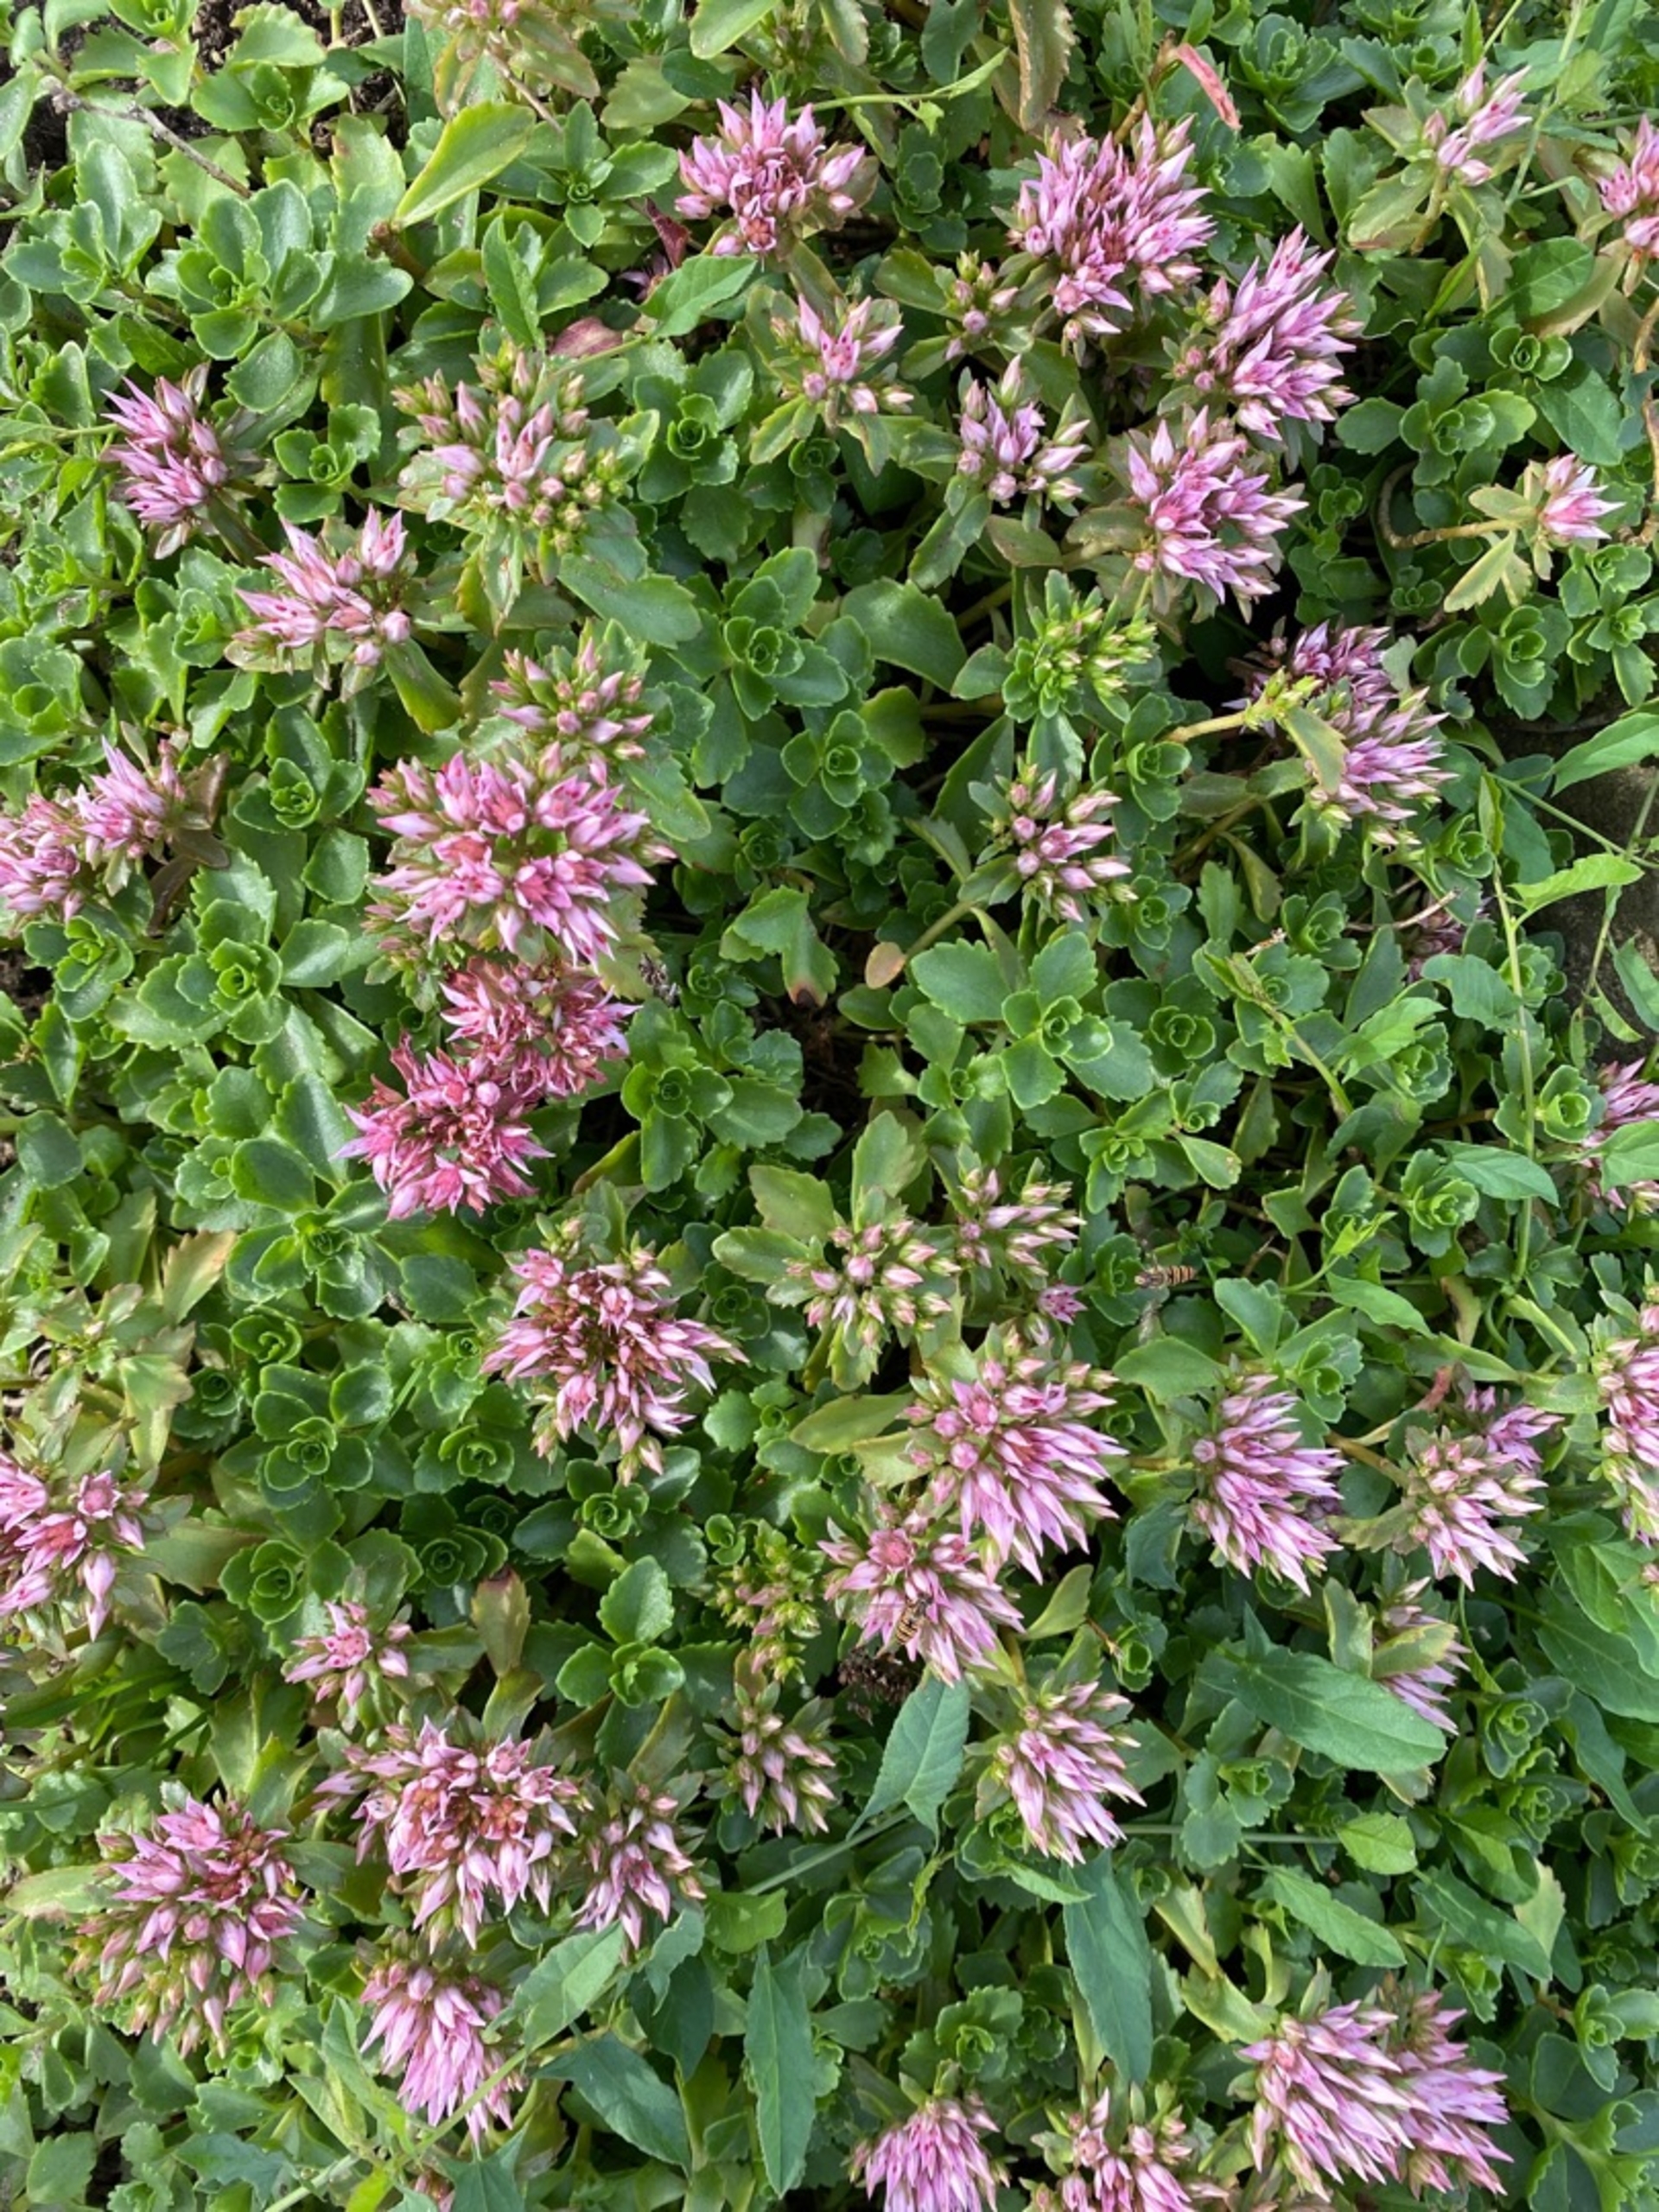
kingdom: Plantae
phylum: Tracheophyta
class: Magnoliopsida
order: Saxifragales
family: Crassulaceae
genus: Phedimus
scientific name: Phedimus spurius
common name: Rød stenurt
